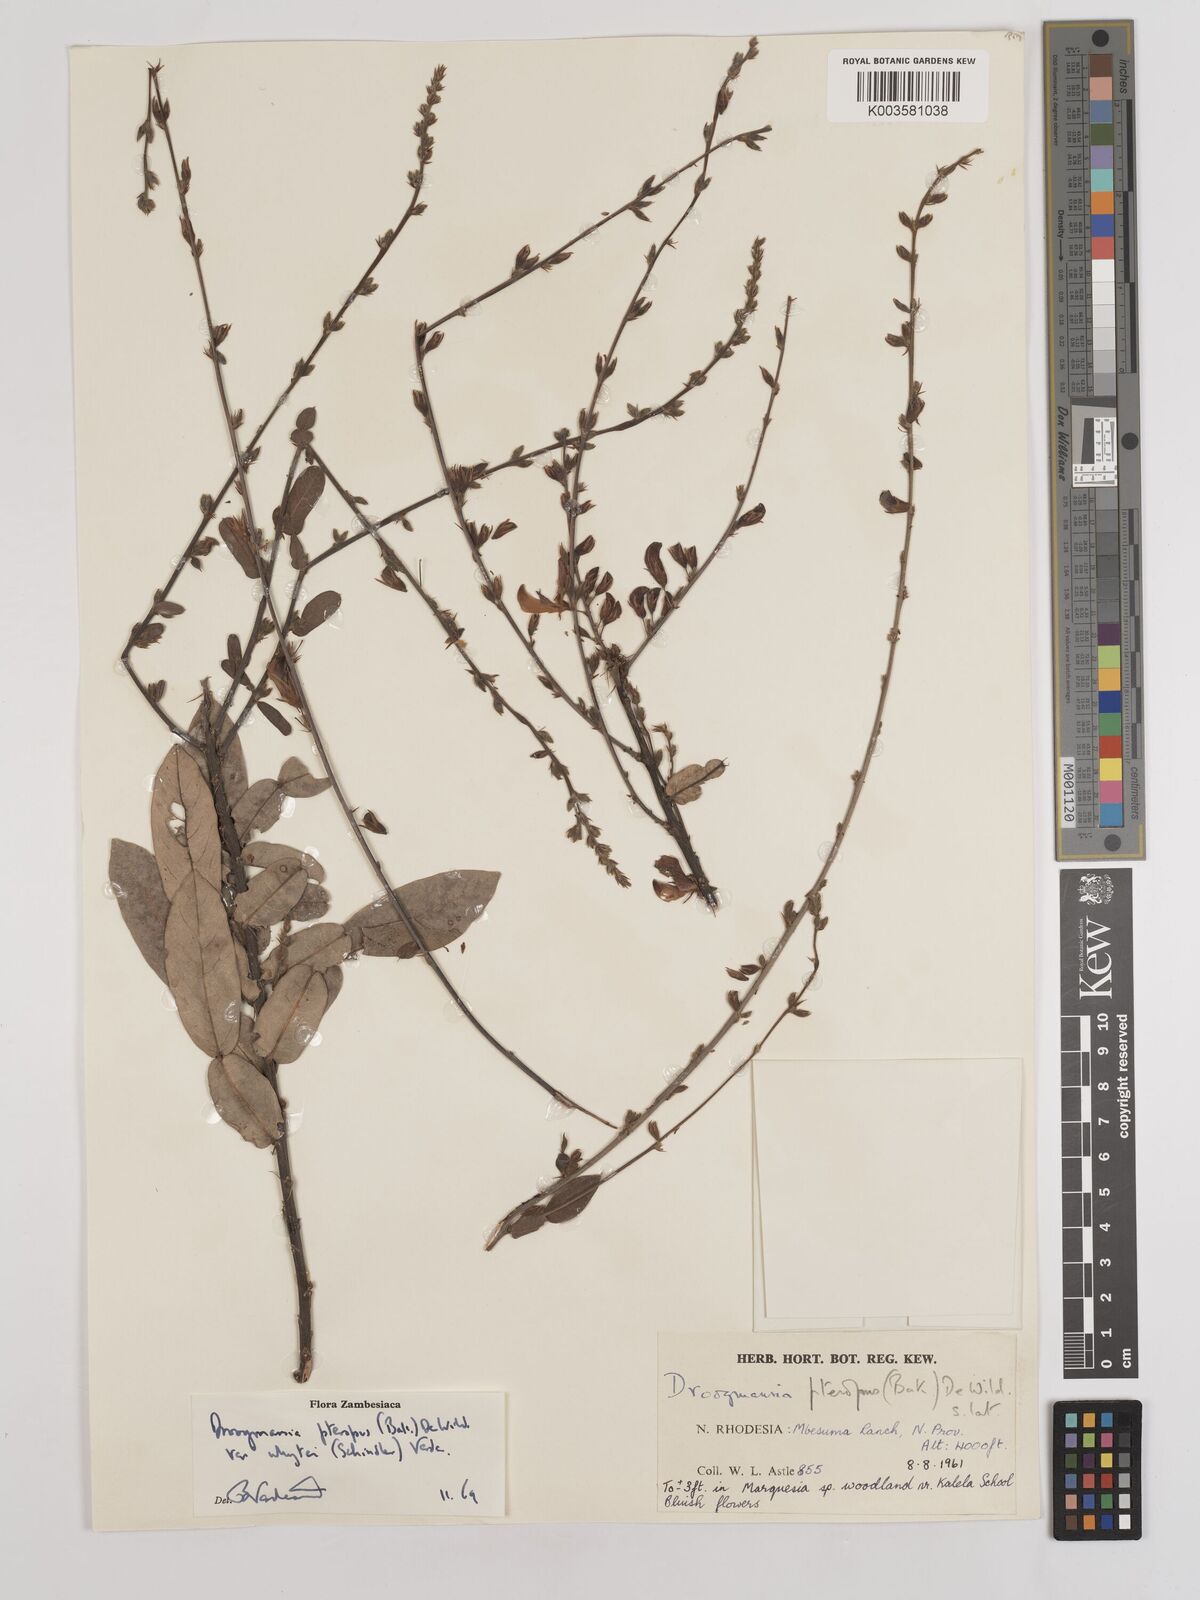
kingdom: Plantae
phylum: Tracheophyta
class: Magnoliopsida
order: Fabales
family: Fabaceae
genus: Droogmansia
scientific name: Droogmansia pteropus
